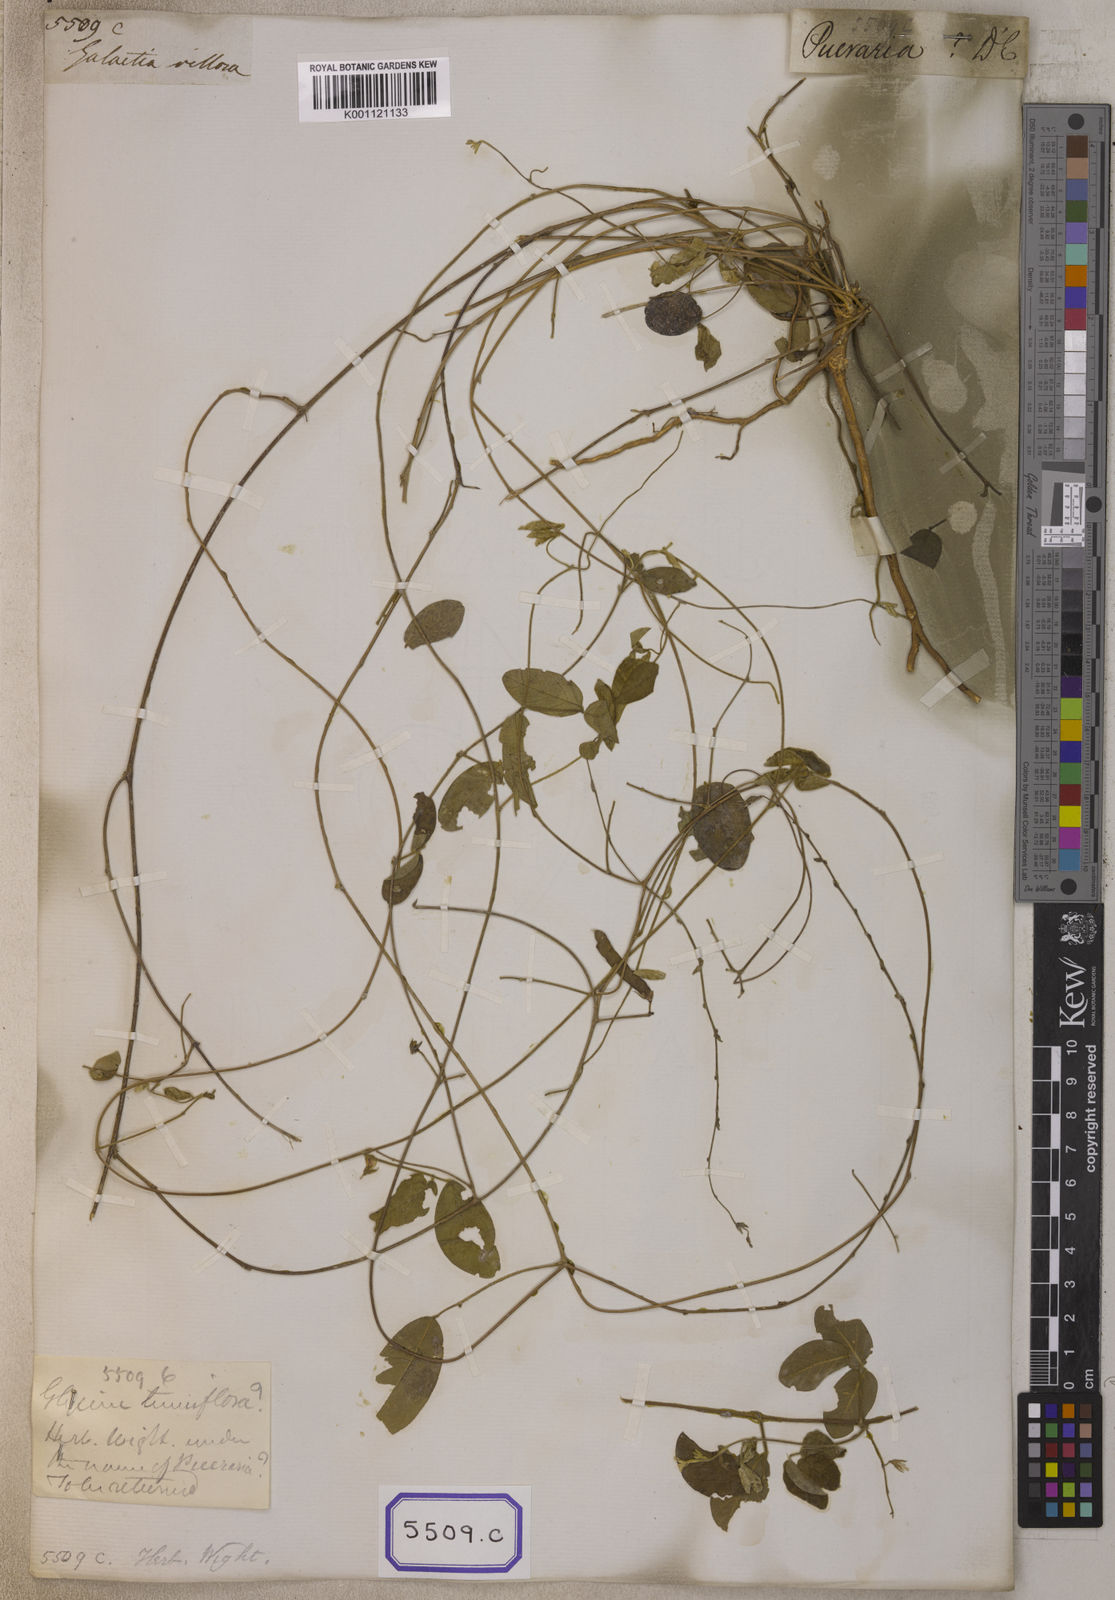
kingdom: Plantae
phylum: Tracheophyta
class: Magnoliopsida
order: Fabales
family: Fabaceae
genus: Galactia
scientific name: Galactia striata
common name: Florida hammock milkpea
